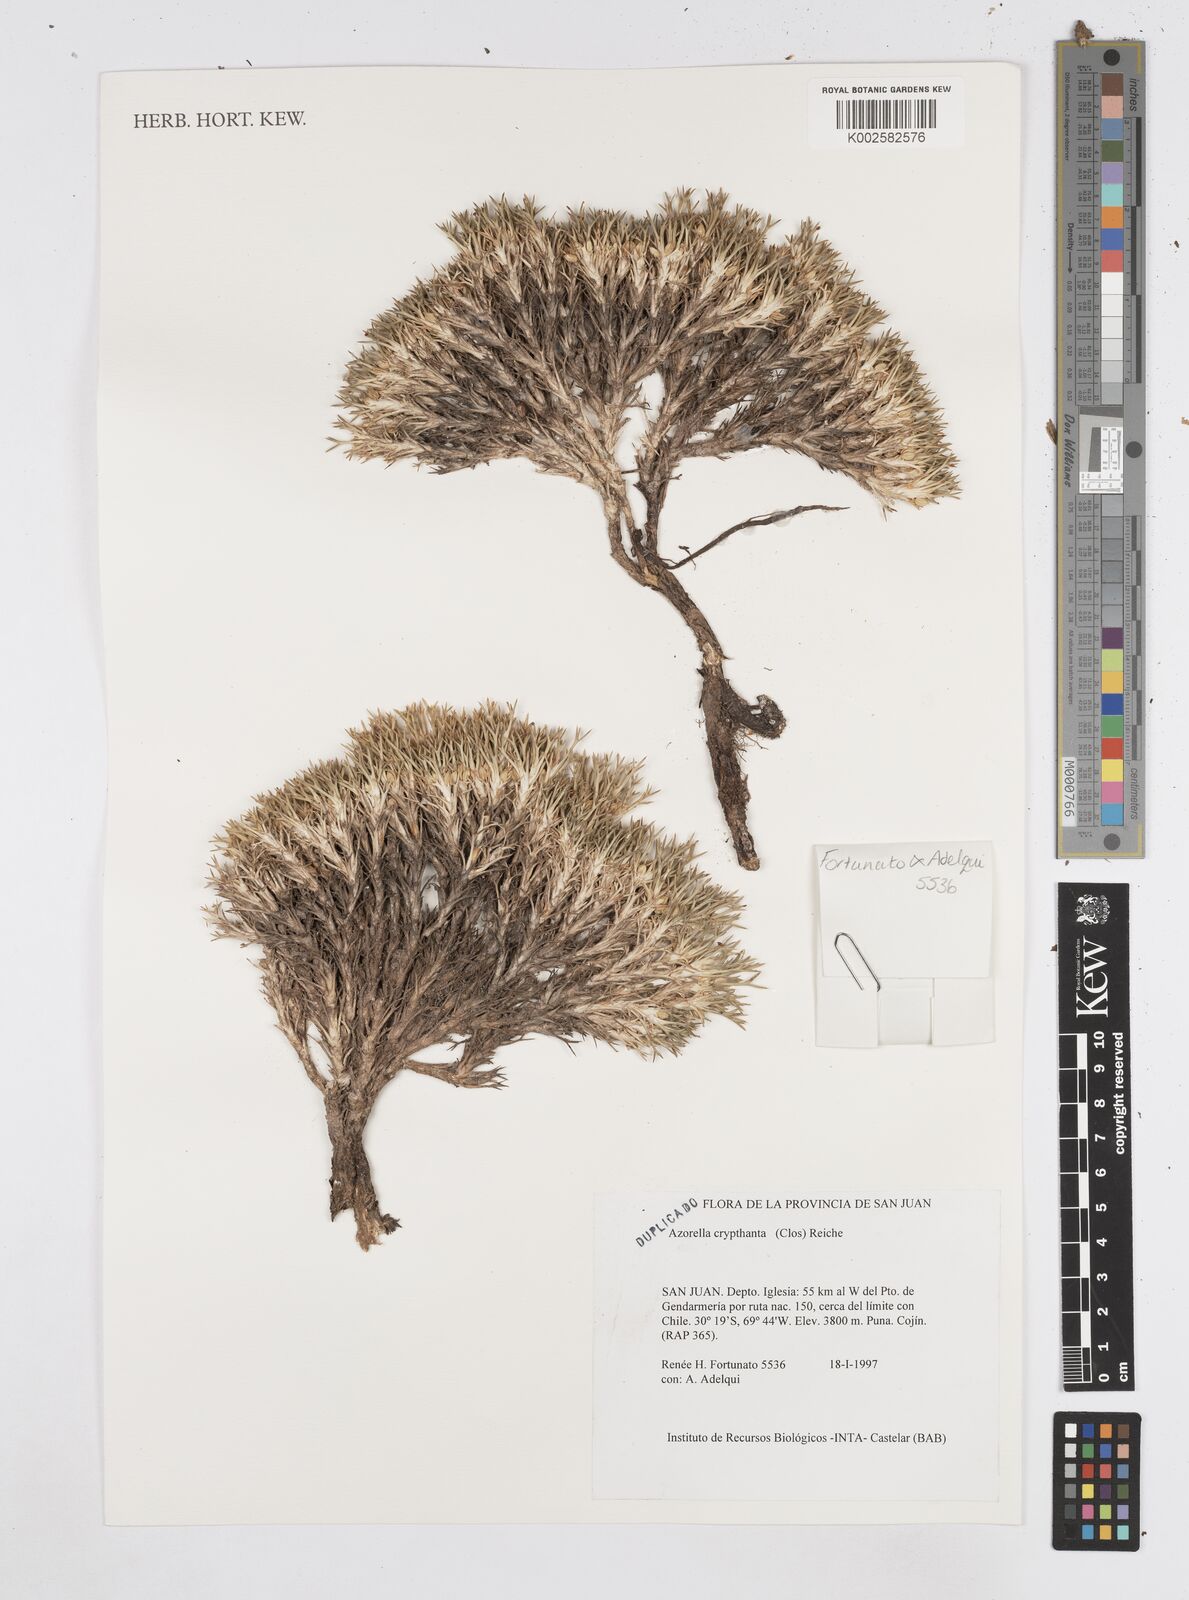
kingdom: Plantae
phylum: Tracheophyta
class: Magnoliopsida
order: Apiales
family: Apiaceae
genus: Azorella
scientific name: Azorella cryptantha
